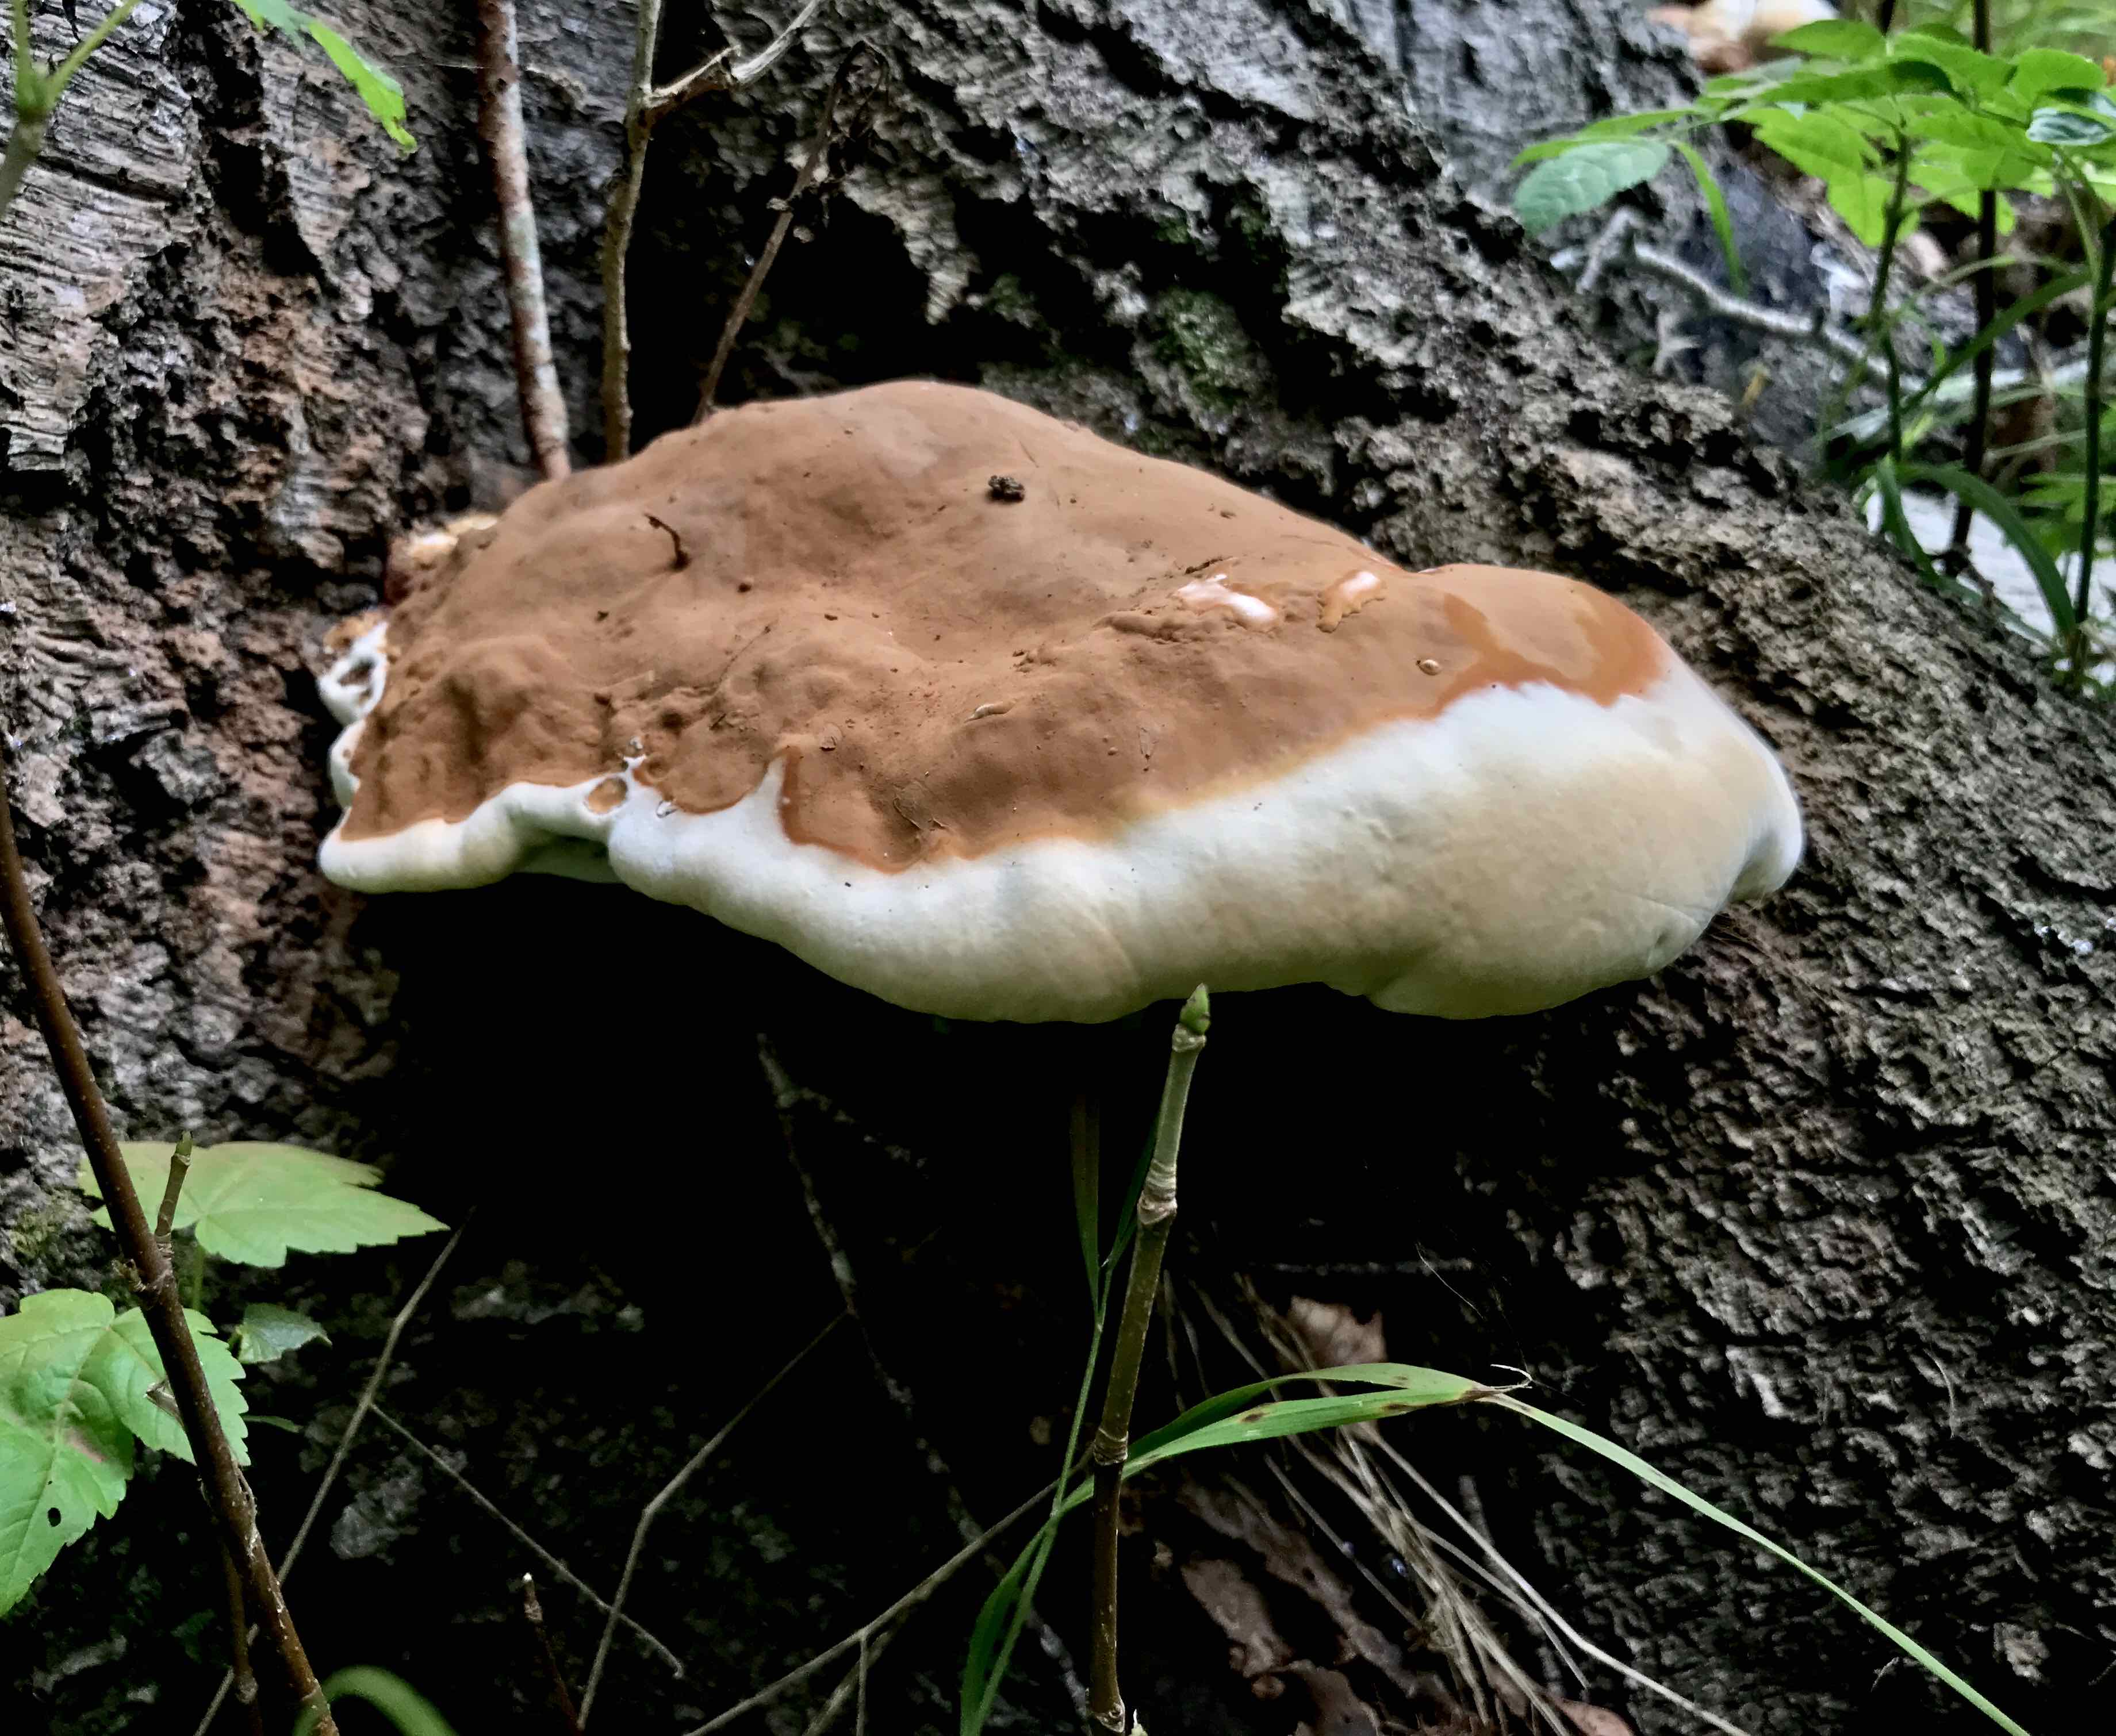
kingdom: Fungi
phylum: Basidiomycota
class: Agaricomycetes
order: Polyporales
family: Polyporaceae
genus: Ganoderma
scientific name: Ganoderma resinaceum
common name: gyldenbrun lakporesvamp
